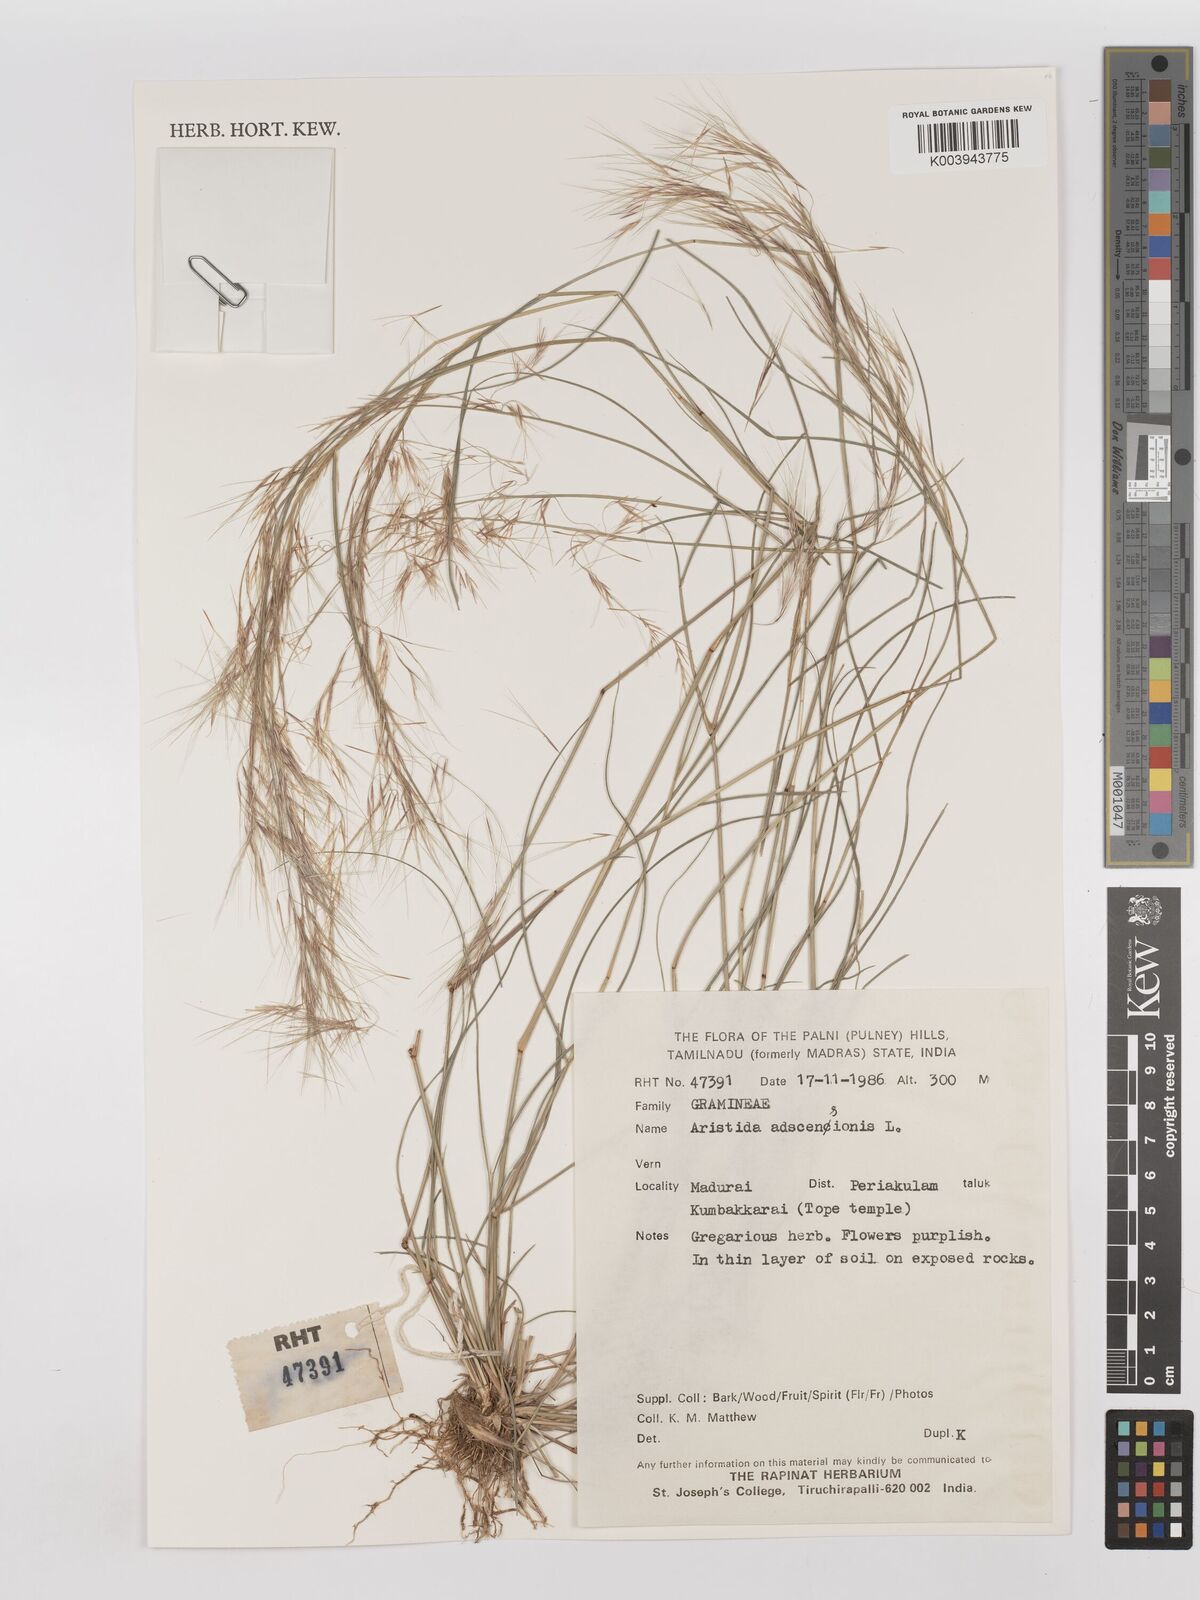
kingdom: Plantae
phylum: Tracheophyta
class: Liliopsida
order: Poales
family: Poaceae
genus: Aristida
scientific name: Aristida adscensionis
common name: Sixweeks threeawn
